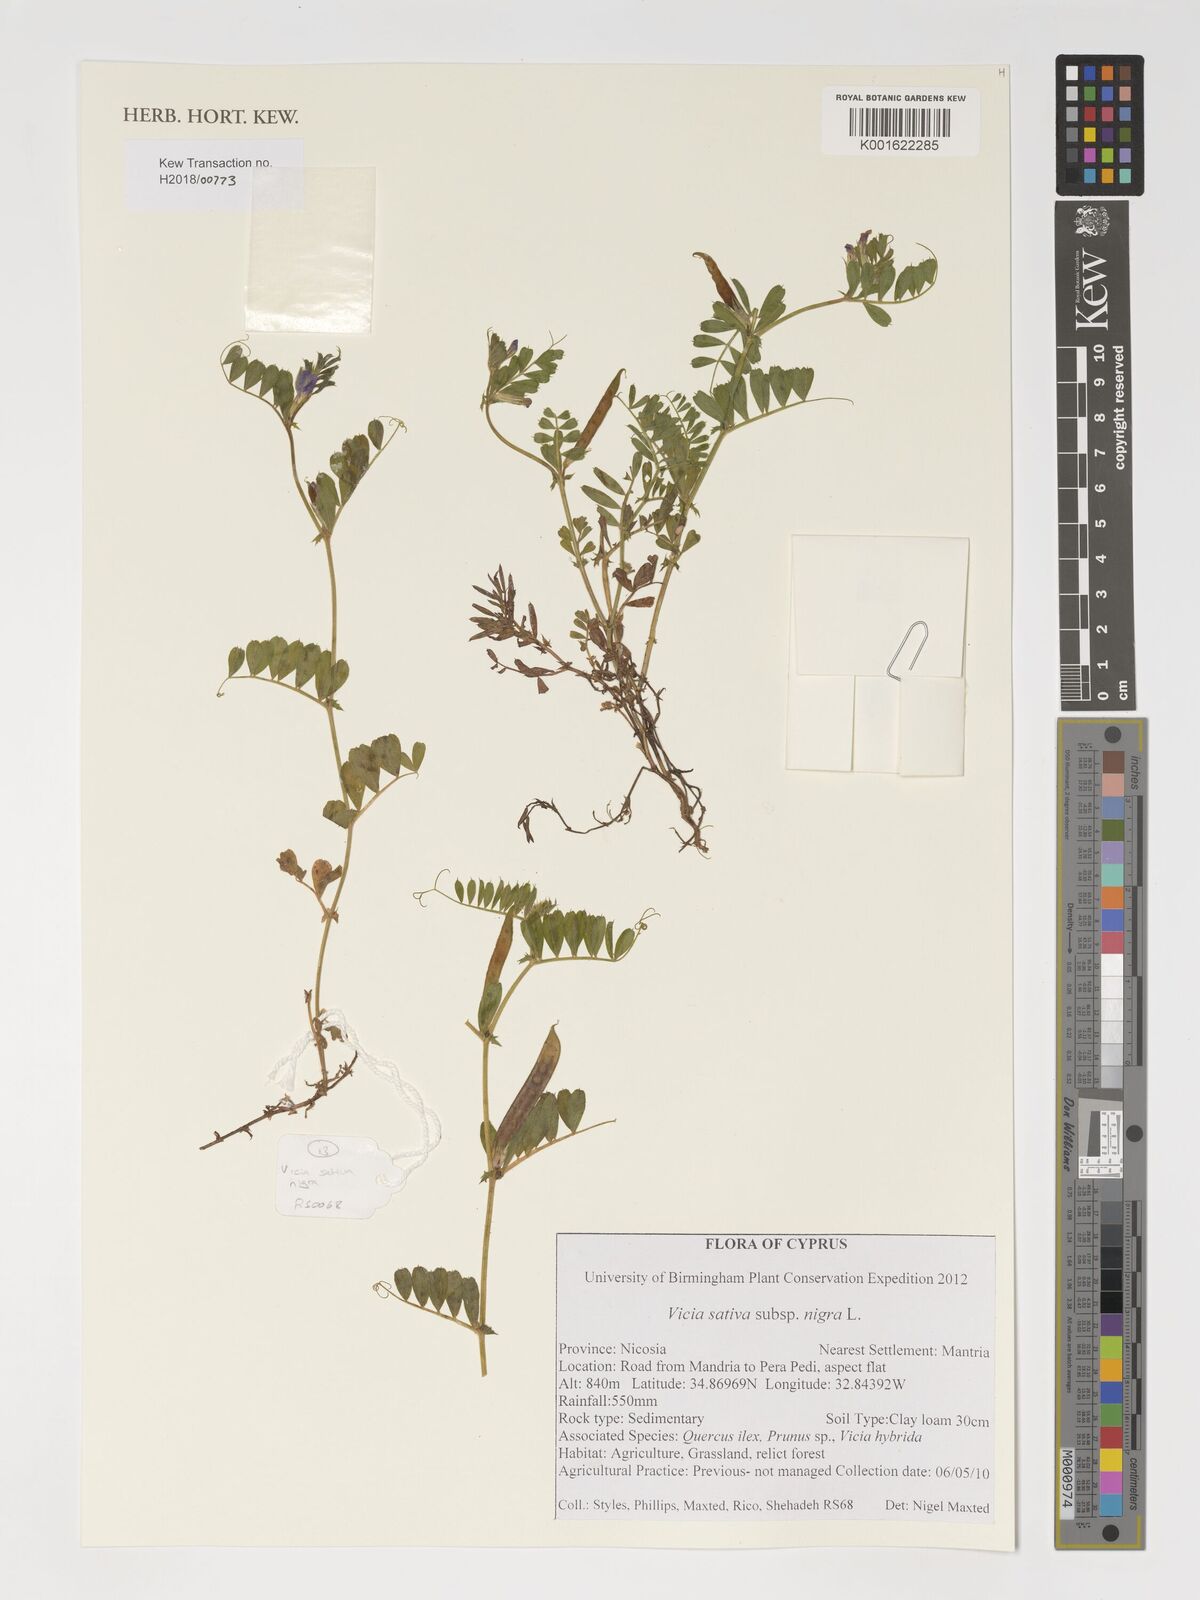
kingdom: Plantae
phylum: Tracheophyta
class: Magnoliopsida
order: Fabales
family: Fabaceae
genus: Vicia
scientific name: Vicia sativa
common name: Garden vetch
